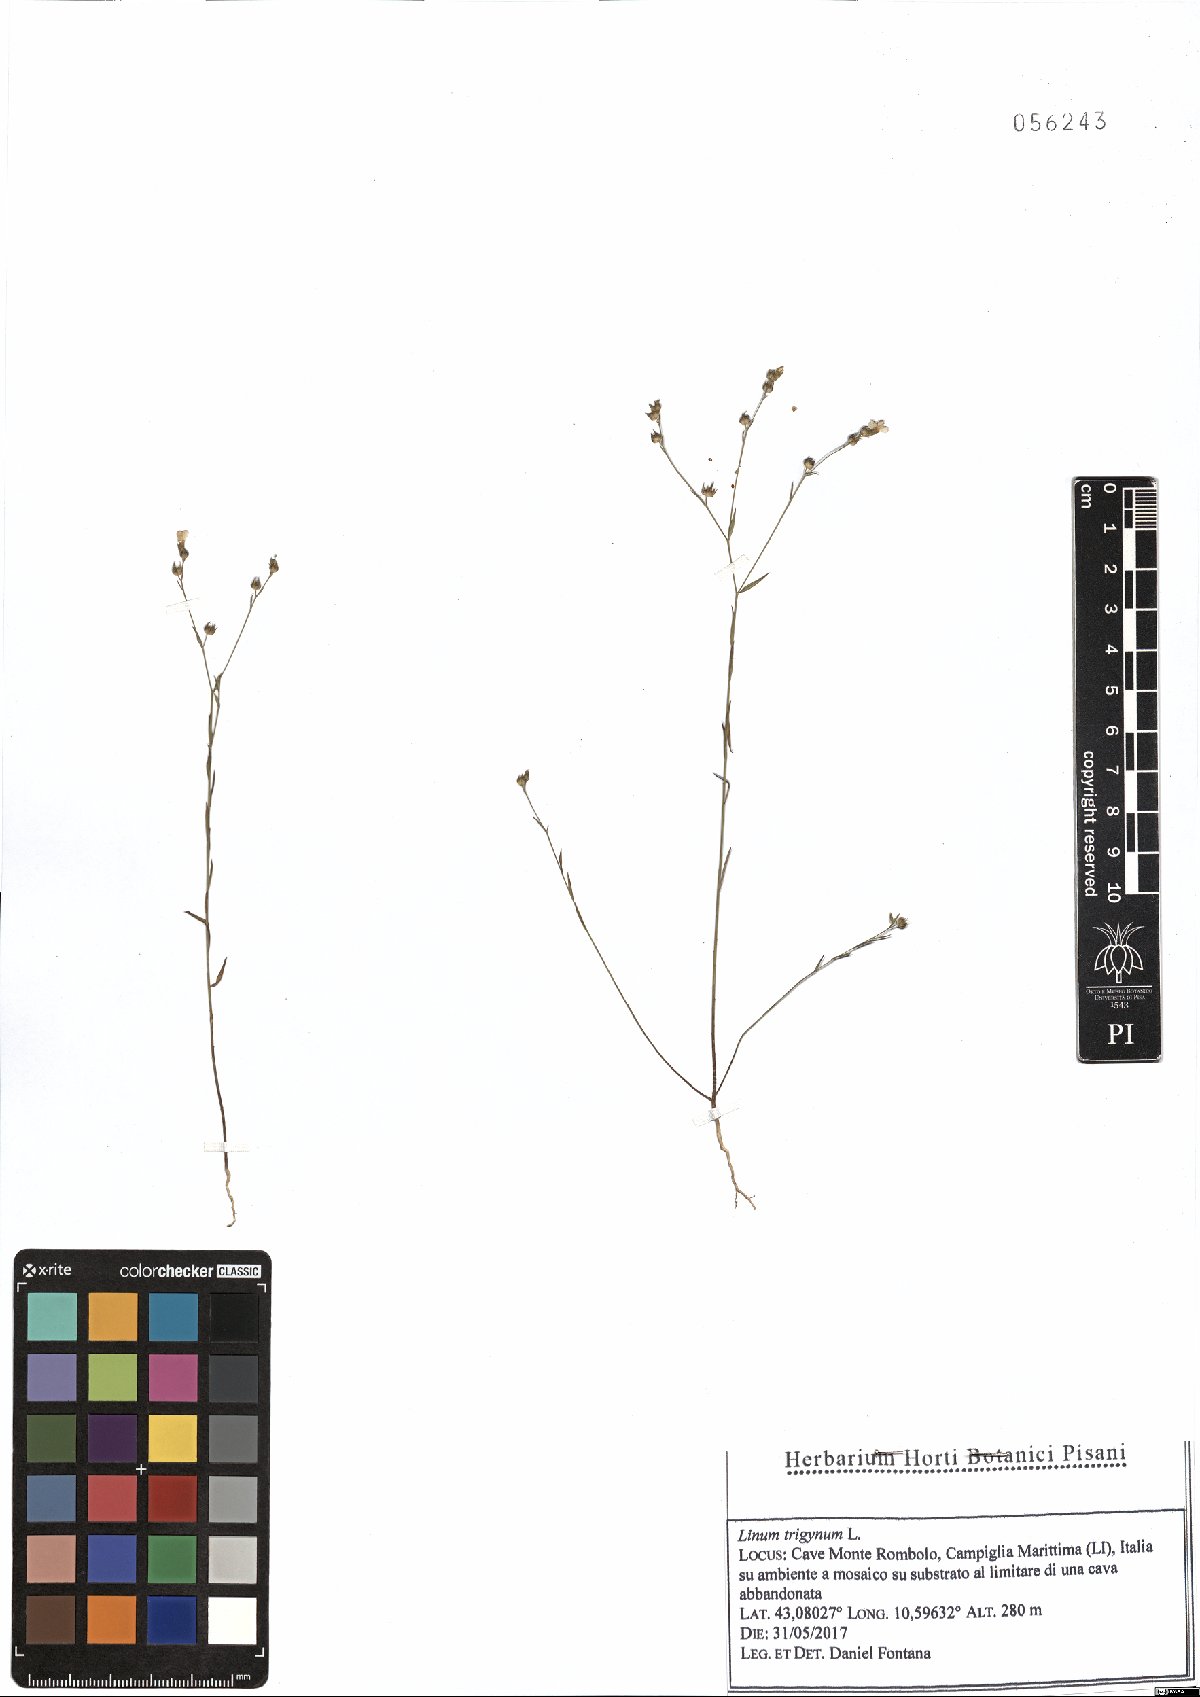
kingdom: Plantae
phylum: Tracheophyta
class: Magnoliopsida
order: Malpighiales
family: Linaceae
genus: Linum
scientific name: Linum trigynum
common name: French flax
